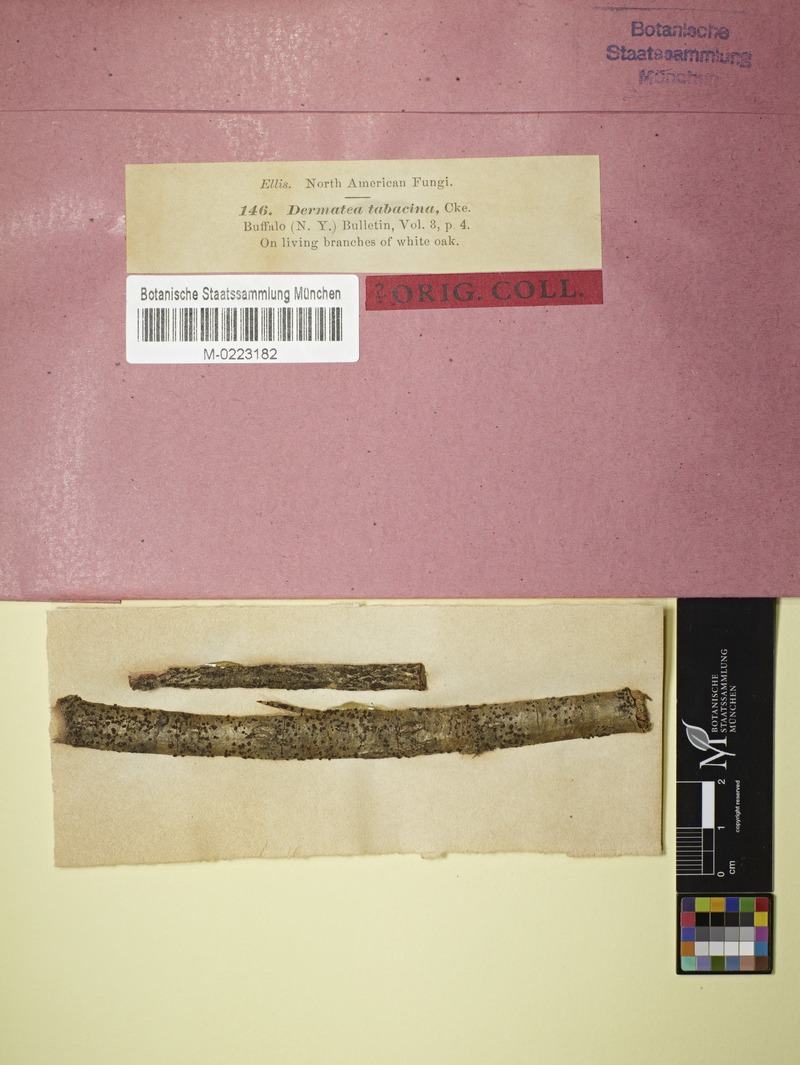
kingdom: Fungi
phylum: Ascomycota
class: Leotiomycetes
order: Helotiales
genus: Dermateopsis
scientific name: Dermateopsis tabacina
